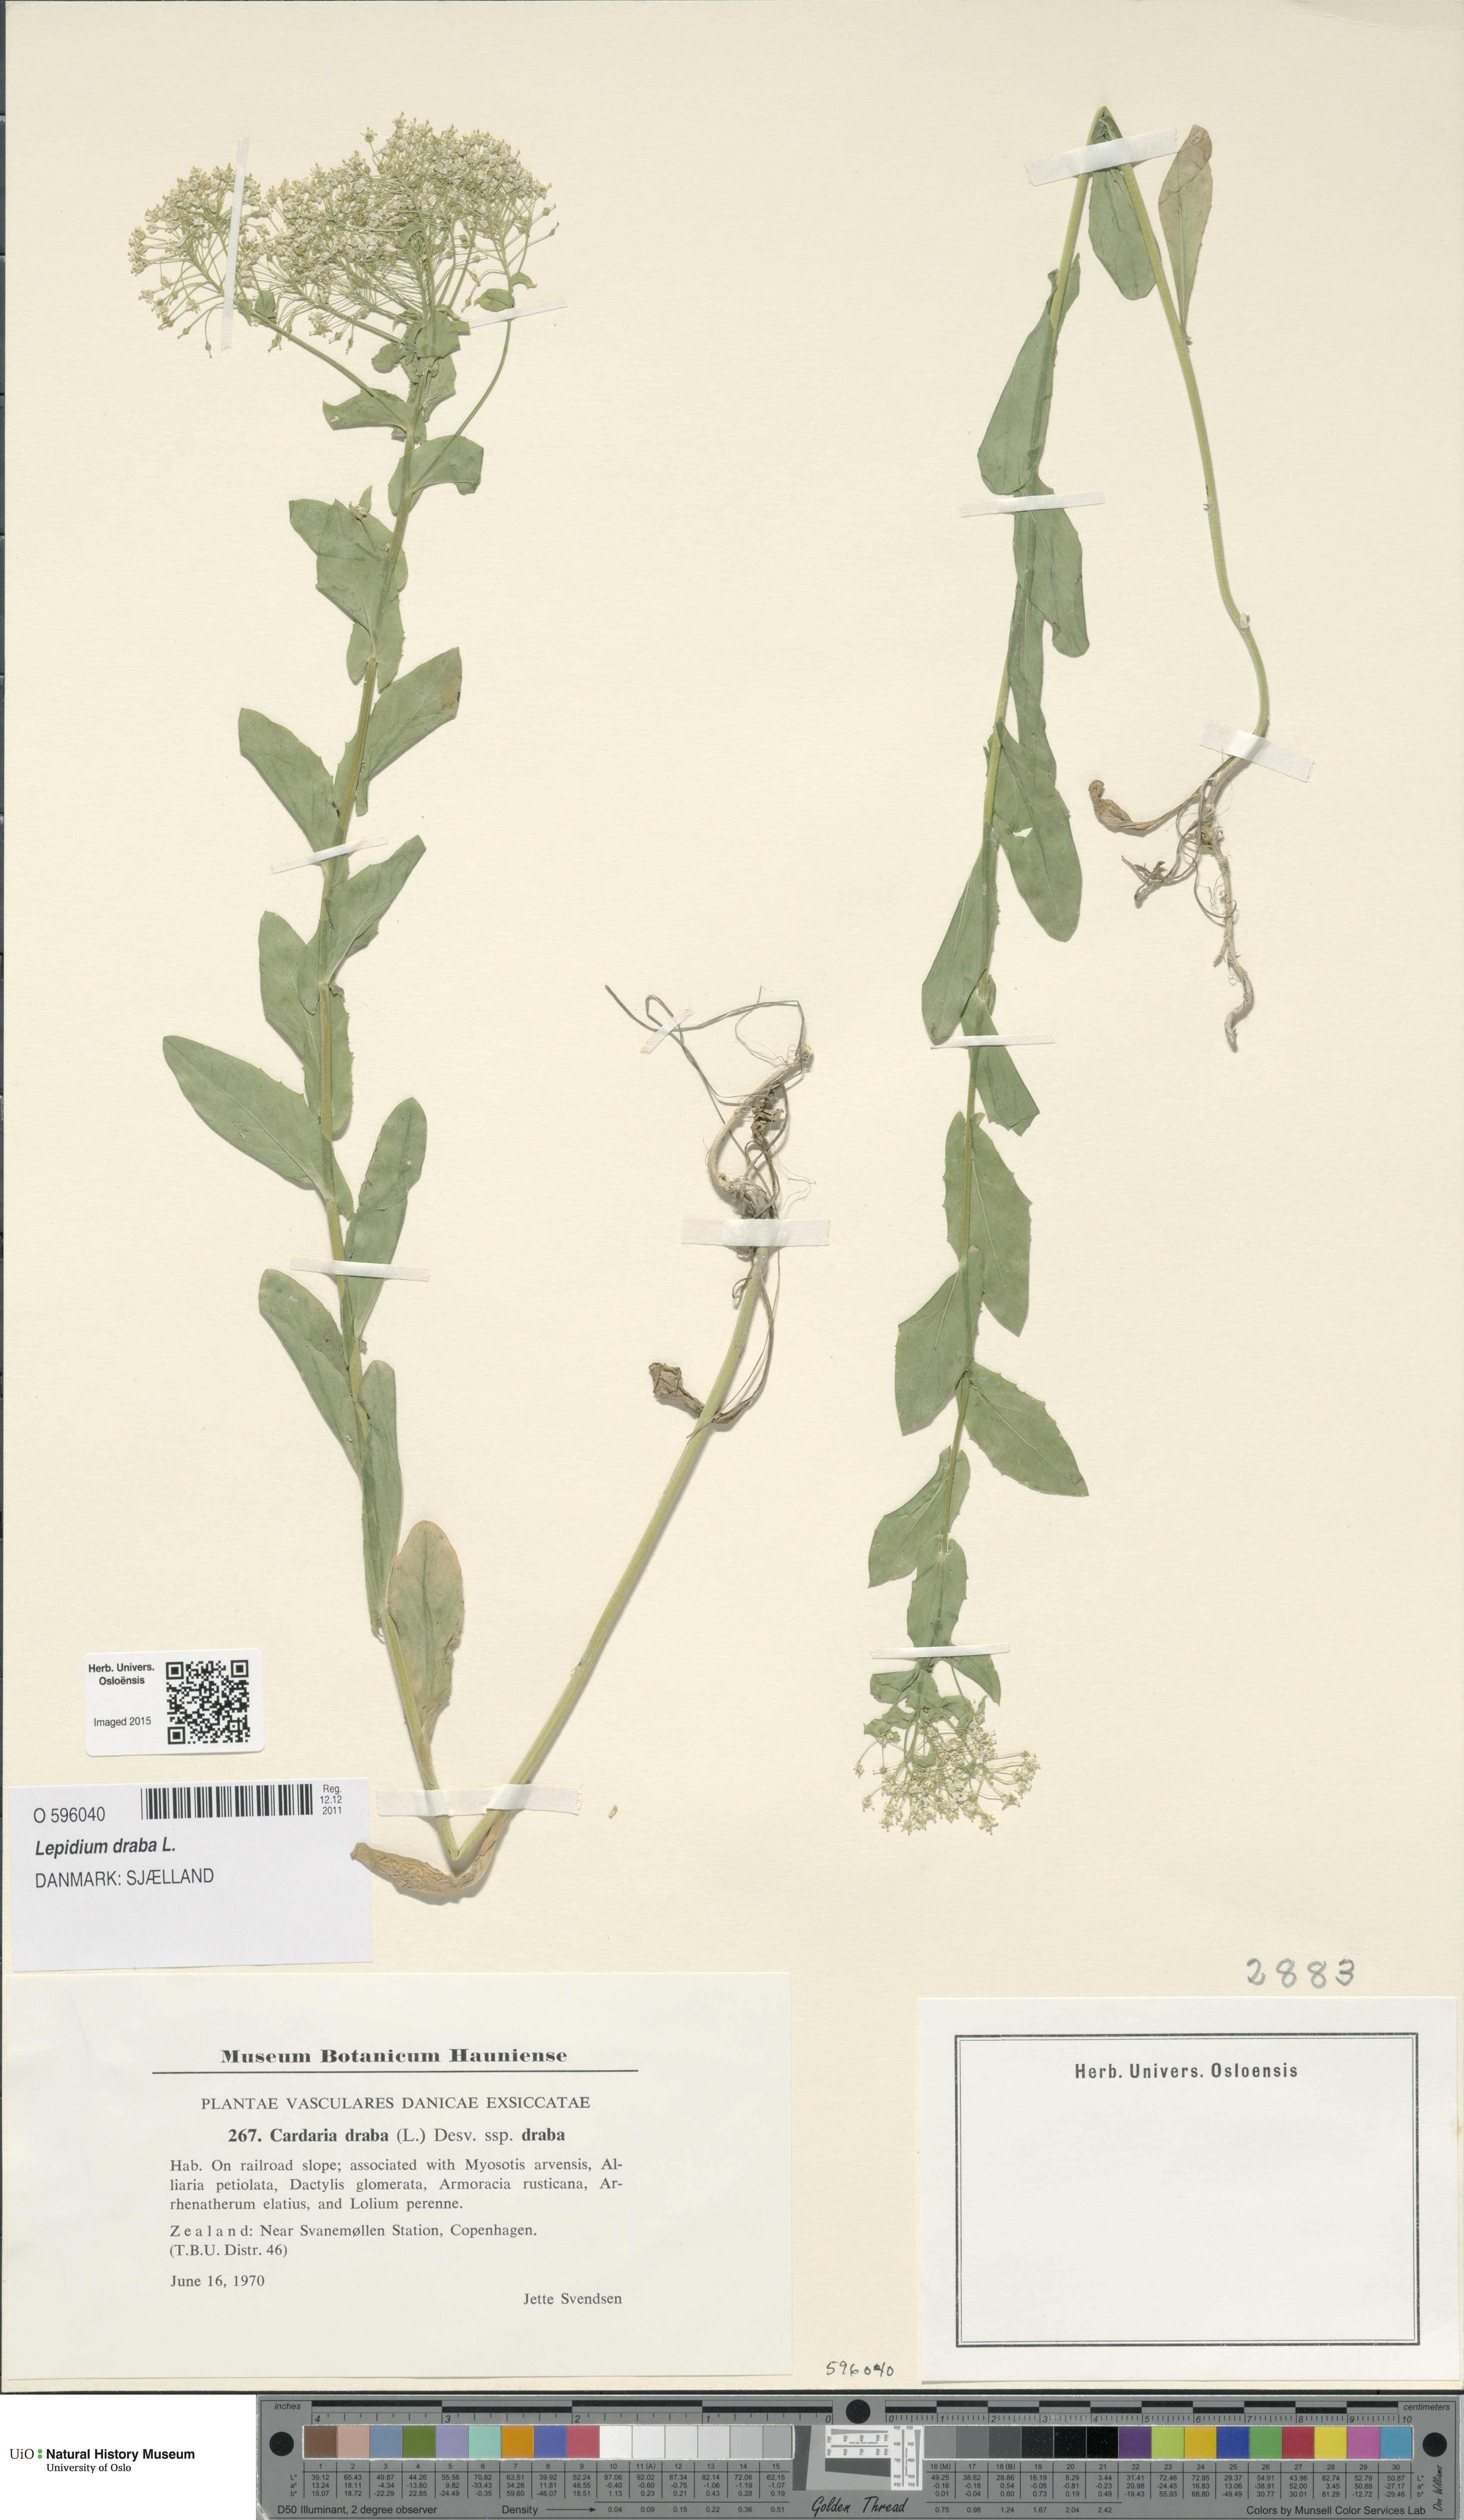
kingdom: Plantae
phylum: Tracheophyta
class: Magnoliopsida
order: Brassicales
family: Brassicaceae
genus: Lepidium
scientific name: Lepidium draba
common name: Hoary cress
